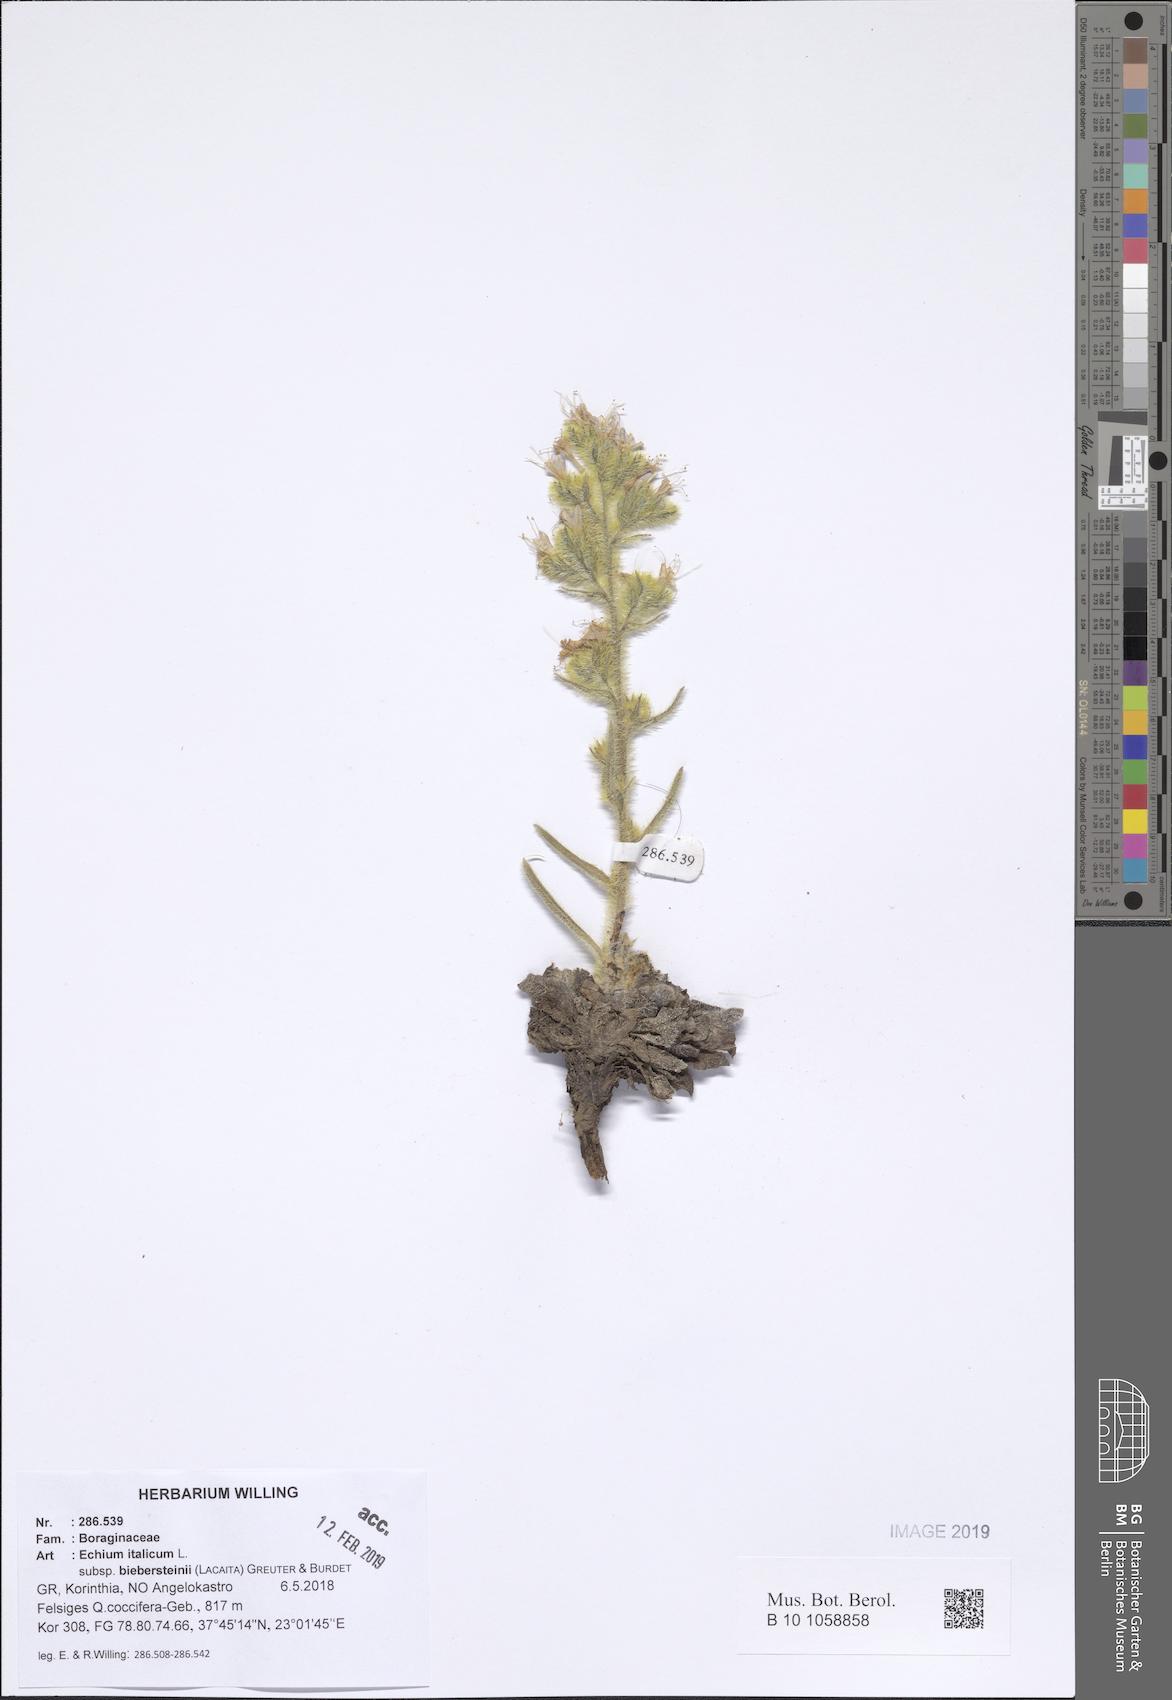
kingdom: Plantae
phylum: Tracheophyta
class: Magnoliopsida
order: Boraginales
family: Boraginaceae
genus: Echium
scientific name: Echium italicum
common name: Italian viper's bugloss
